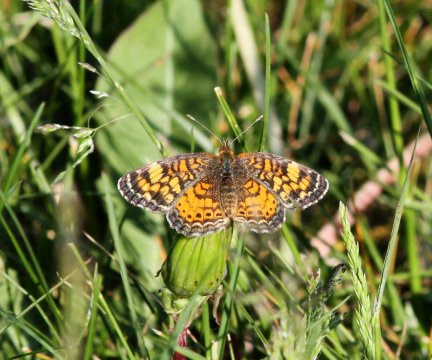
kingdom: Animalia
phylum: Arthropoda
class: Insecta
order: Lepidoptera
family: Nymphalidae
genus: Phyciodes
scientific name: Phyciodes tharos
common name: Pearl Crescent
